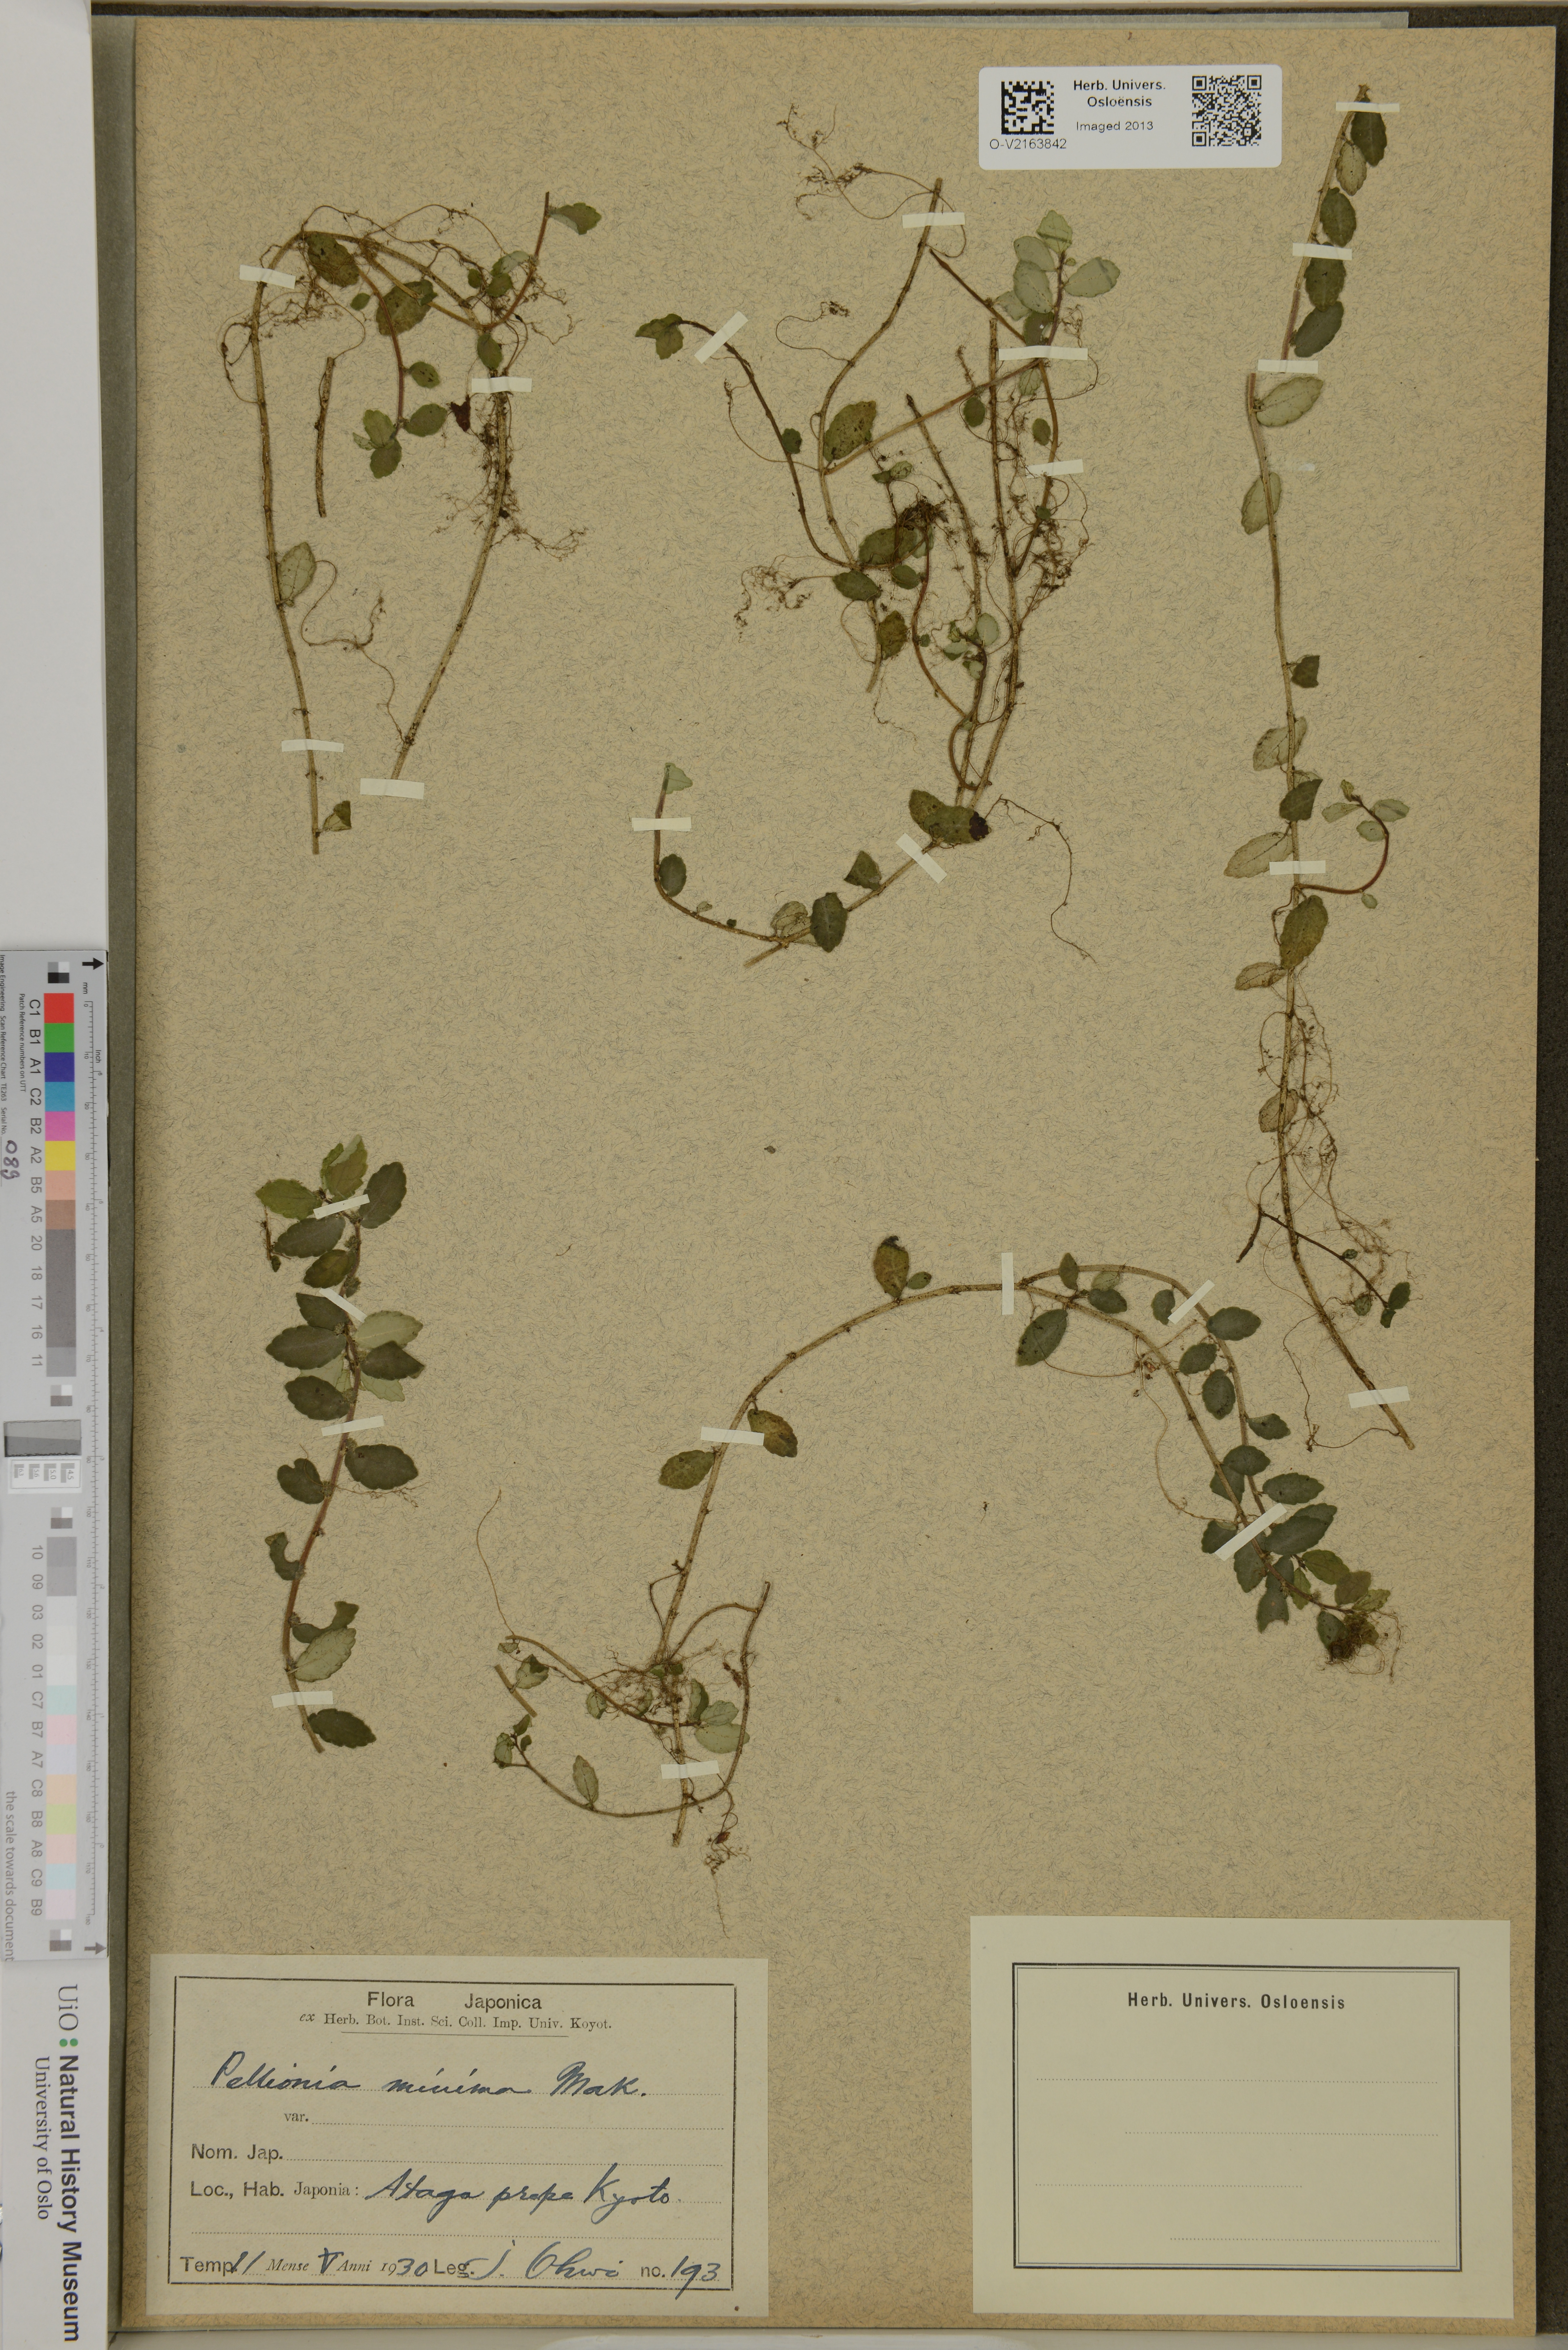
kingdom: Plantae
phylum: Tracheophyta
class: Magnoliopsida
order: Rosales
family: Urticaceae
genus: Elatostema
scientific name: Elatostema brevifolium
